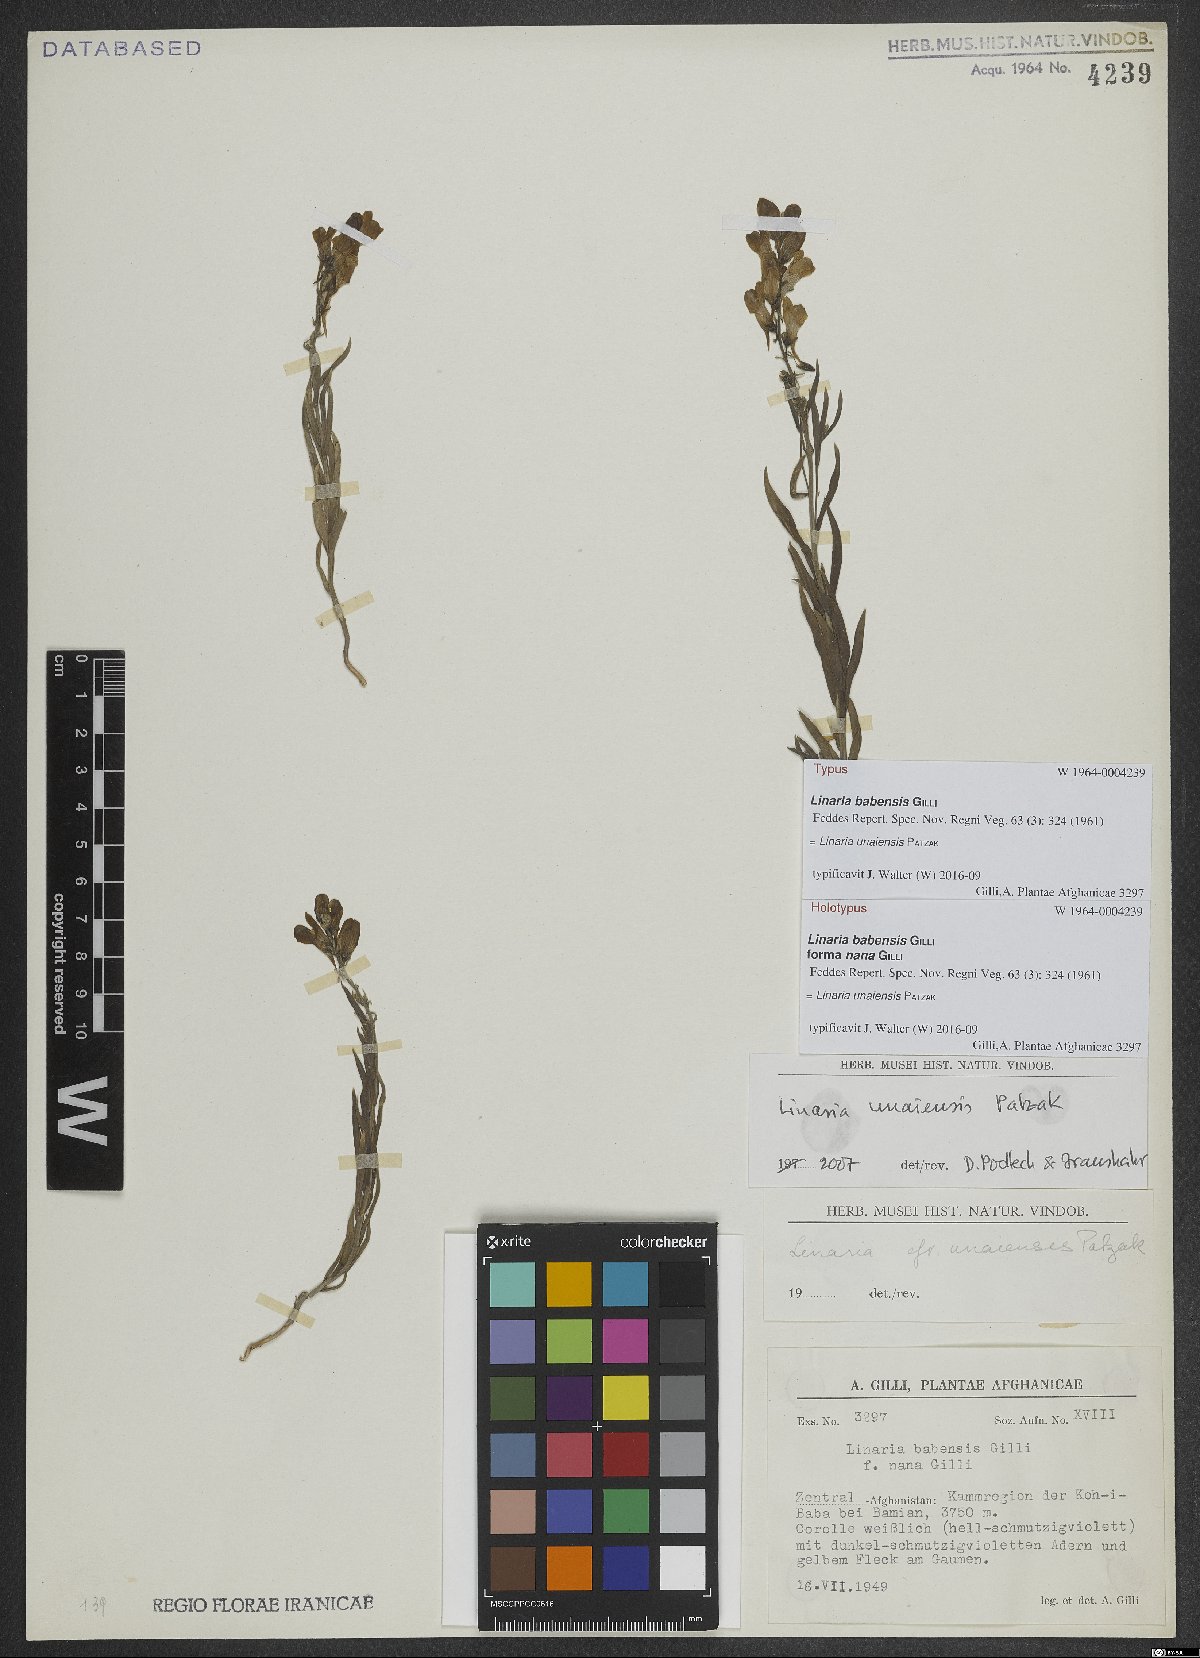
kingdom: Plantae
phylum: Tracheophyta
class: Magnoliopsida
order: Lamiales
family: Plantaginaceae
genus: Linaria
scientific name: Linaria unaiensis
